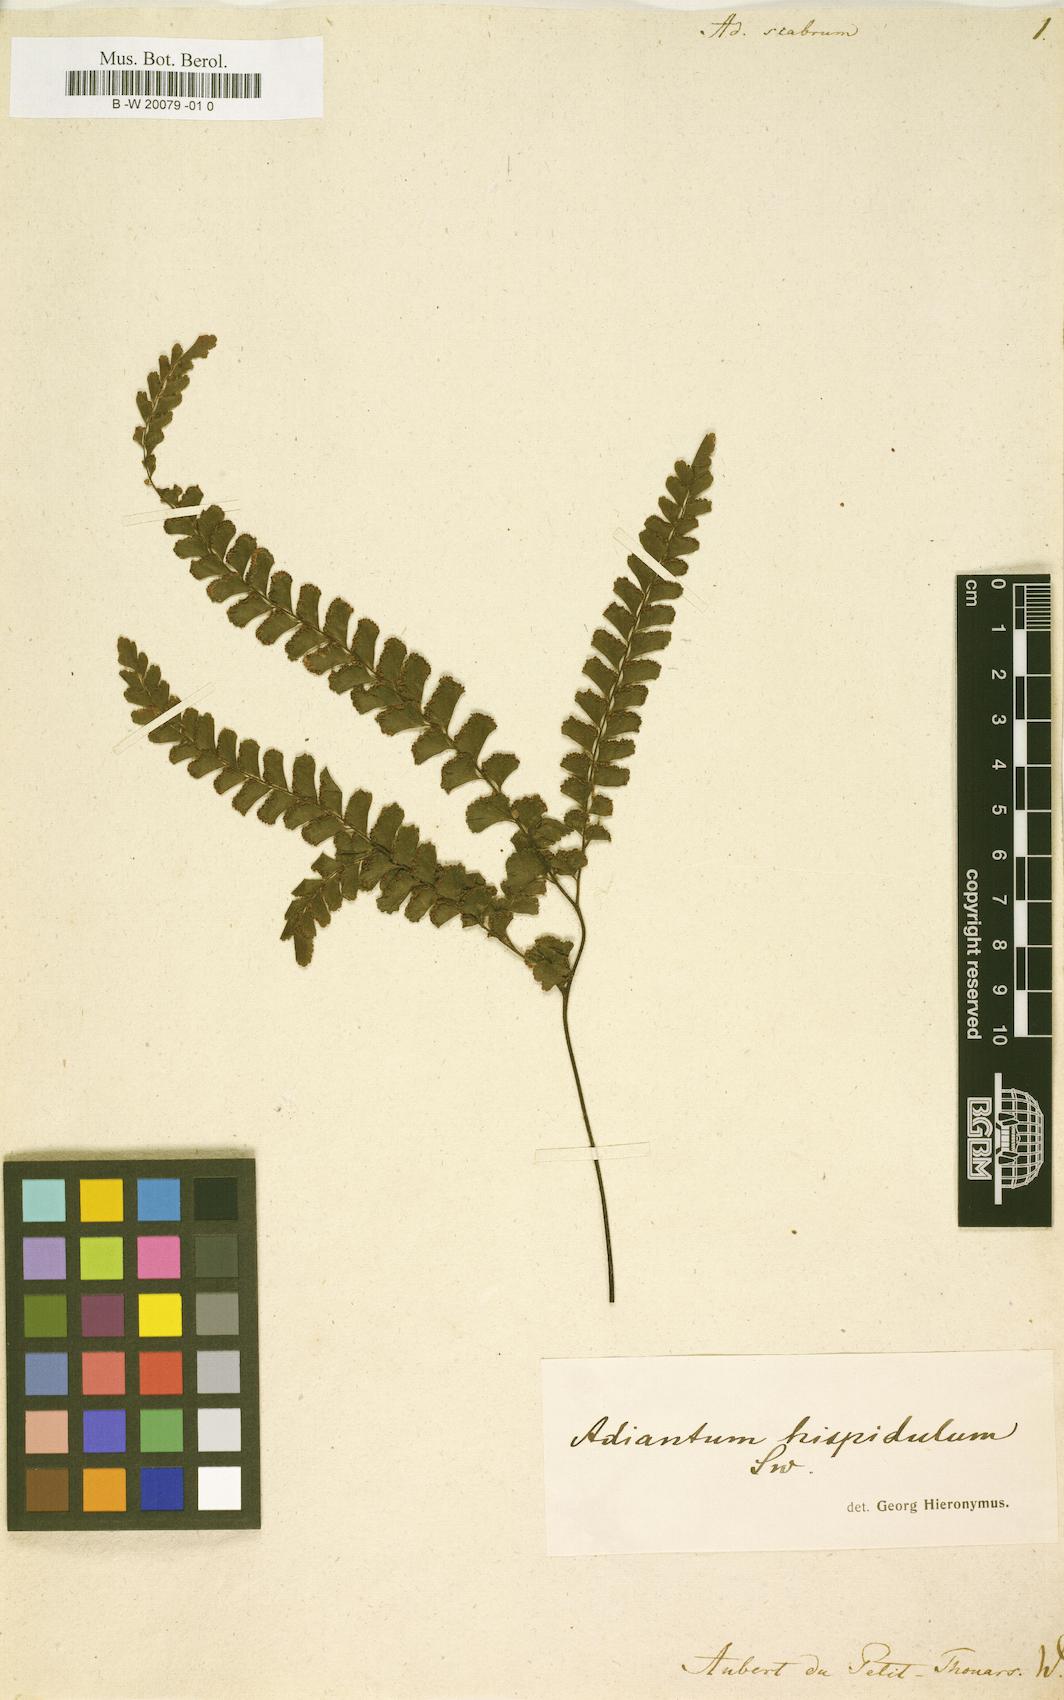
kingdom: Plantae
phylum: Tracheophyta
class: Polypodiopsida
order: Polypodiales
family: Pteridaceae
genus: Adiantum
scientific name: Adiantum
